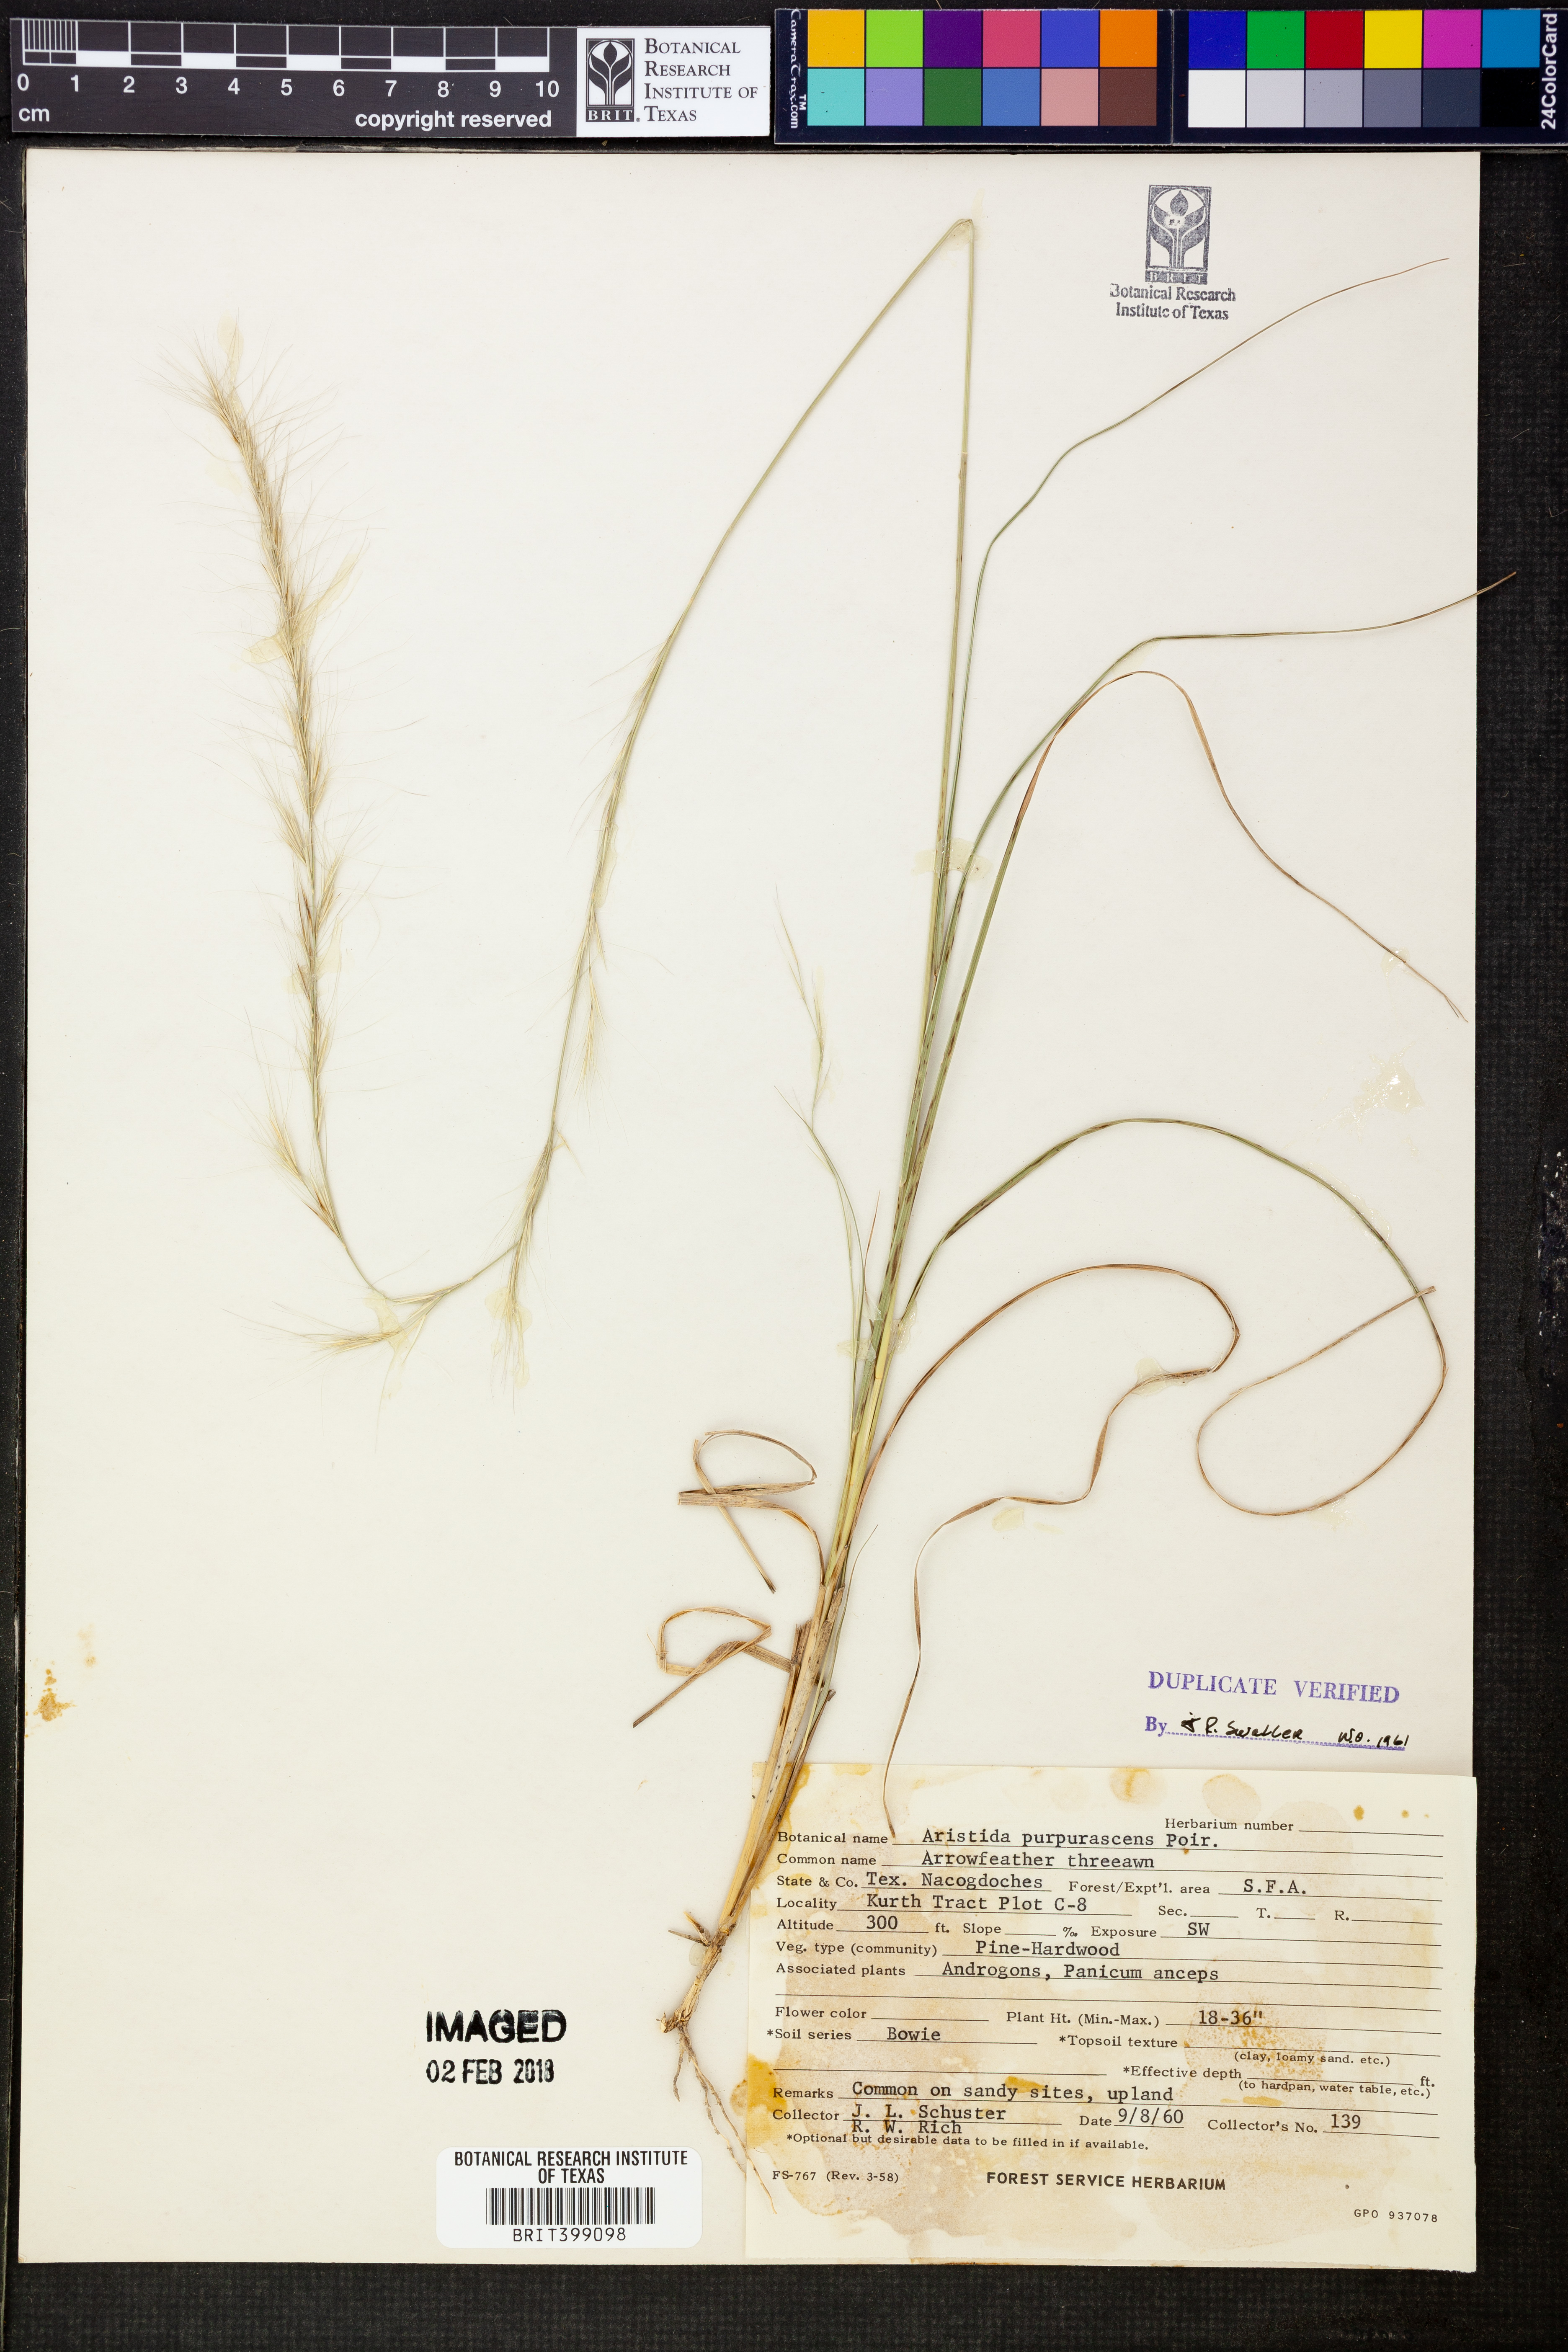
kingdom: Plantae
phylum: Tracheophyta
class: Liliopsida
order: Poales
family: Poaceae
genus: Aristida
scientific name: Aristida purpurascens
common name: Arrow-feather
